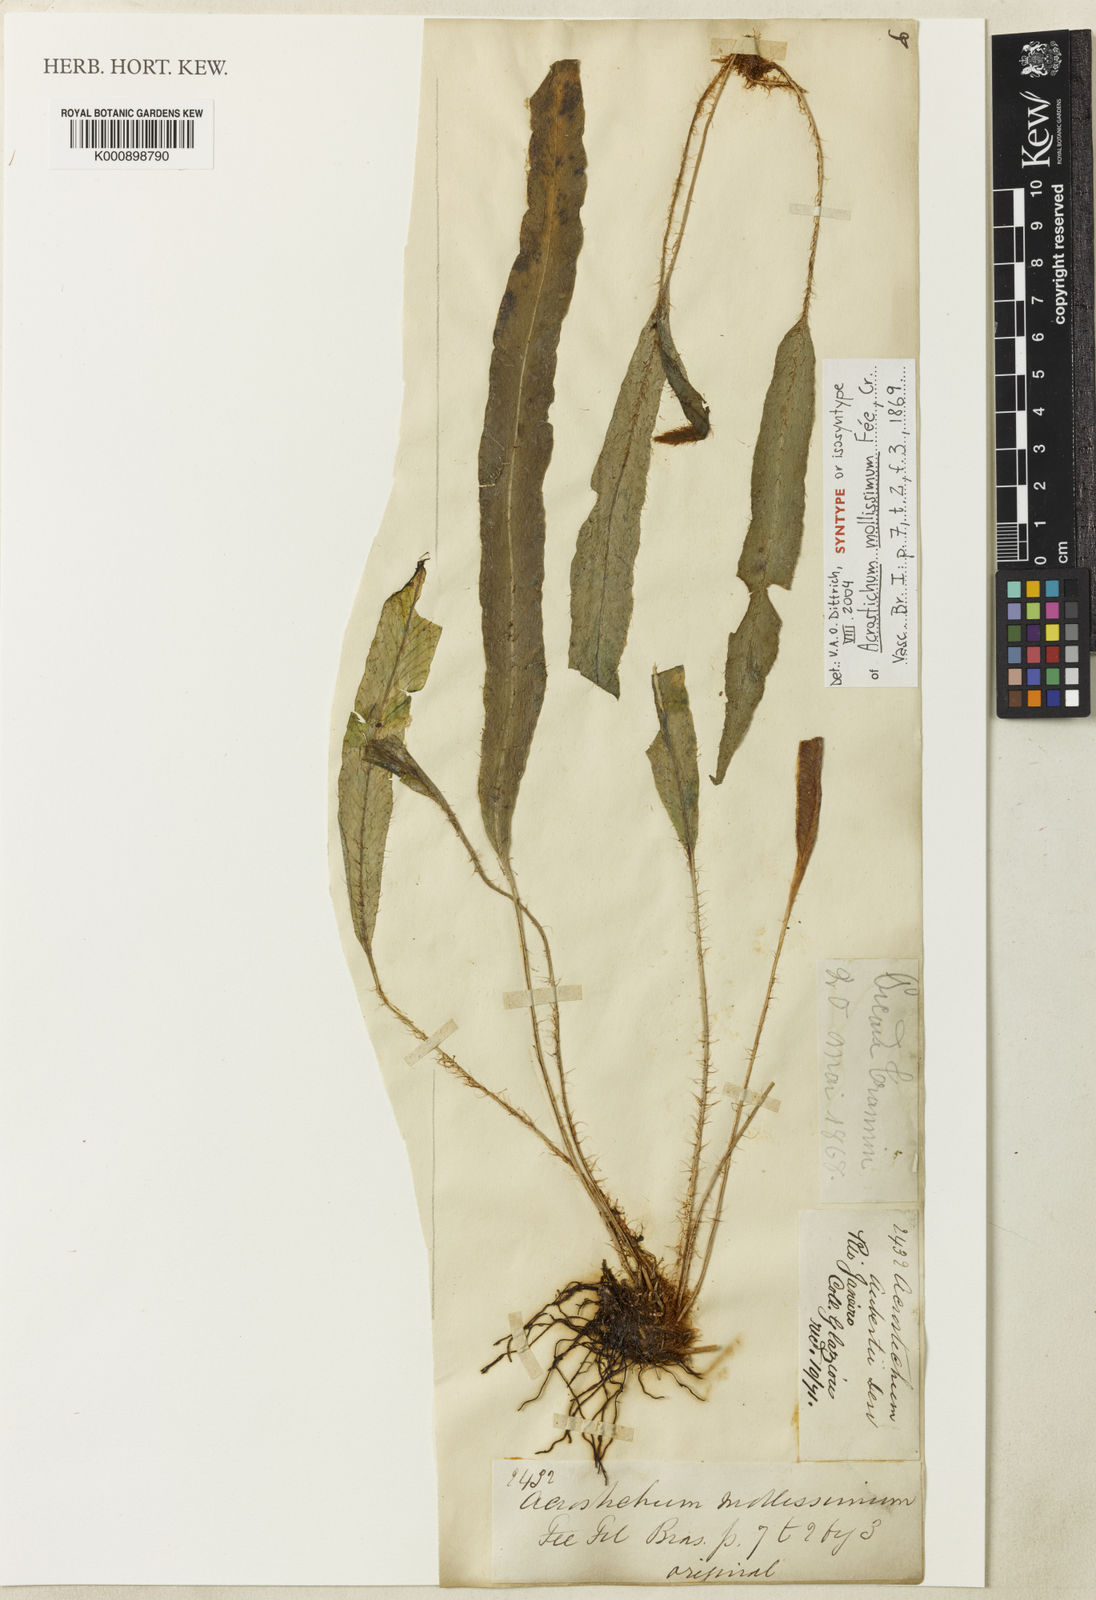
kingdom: Plantae
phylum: Tracheophyta
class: Polypodiopsida
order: Polypodiales
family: Dryopteridaceae
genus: Elaphoglossum
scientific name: Elaphoglossum moritzianum
